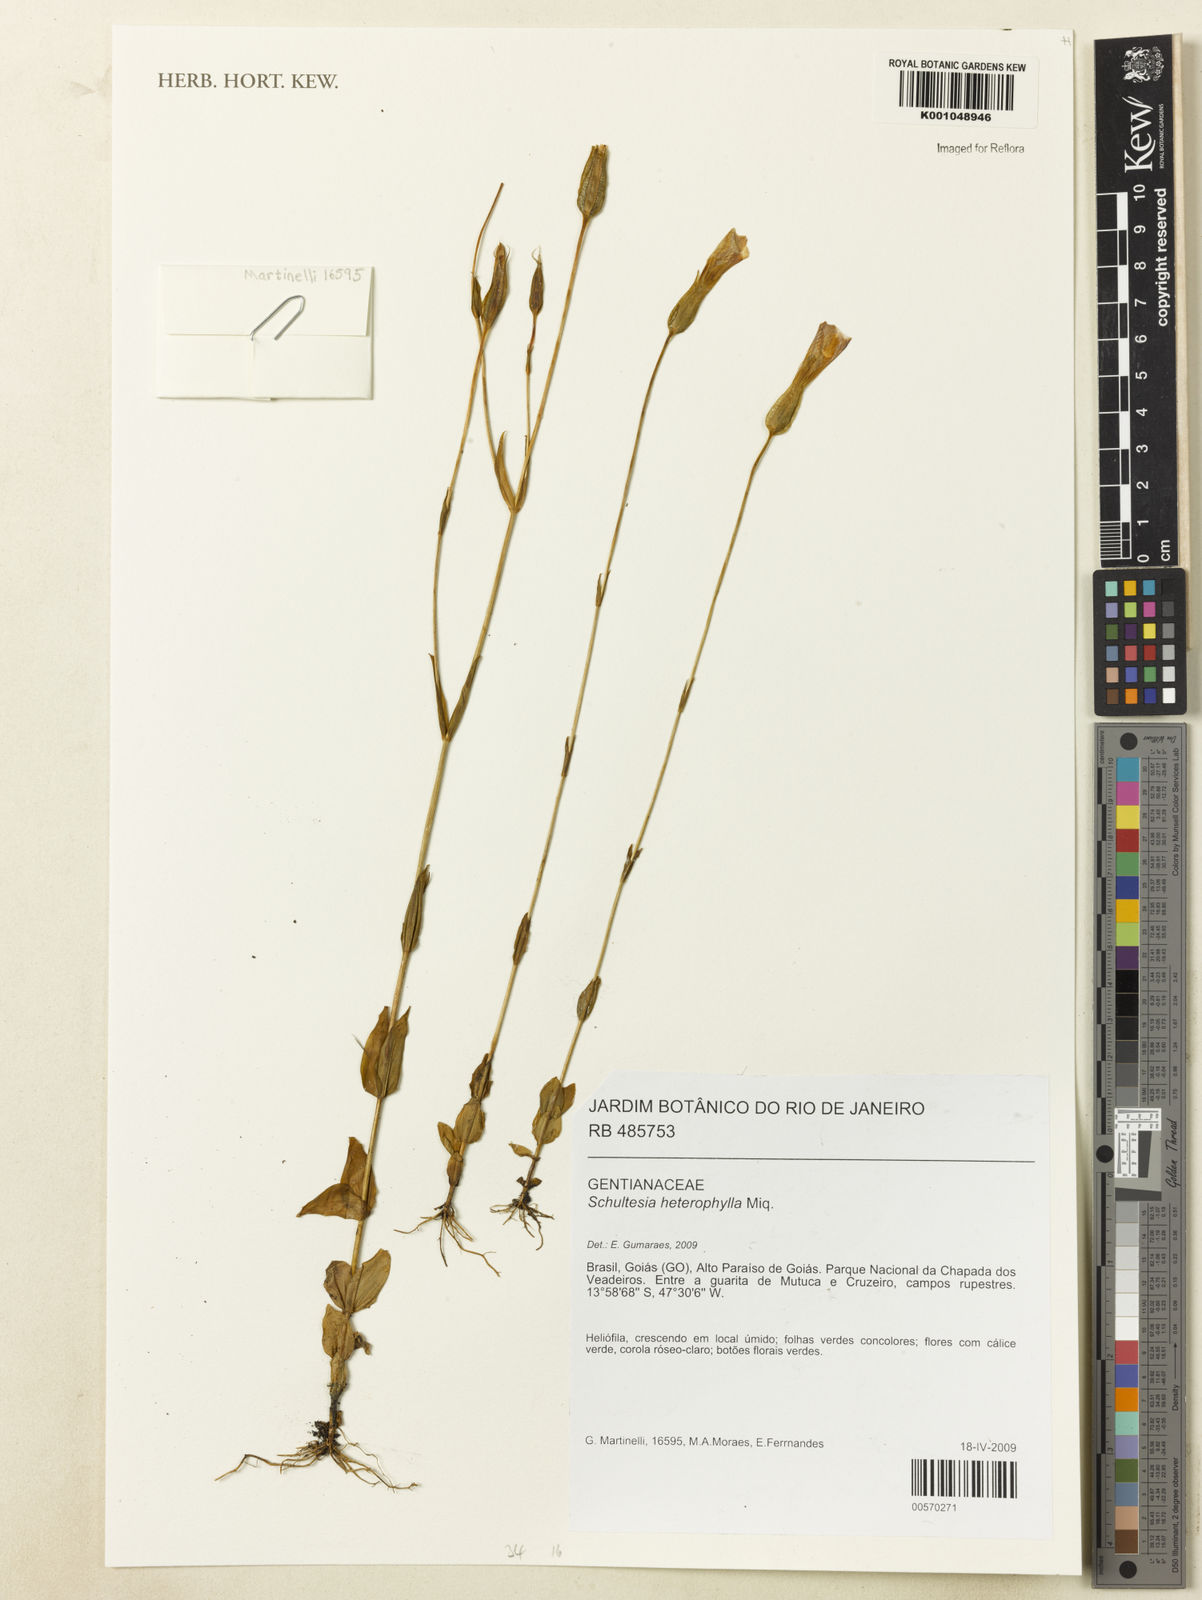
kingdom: Plantae
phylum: Tracheophyta
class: Magnoliopsida
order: Gentianales
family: Gentianaceae
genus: Schultesia
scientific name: Schultesia heterophylla
